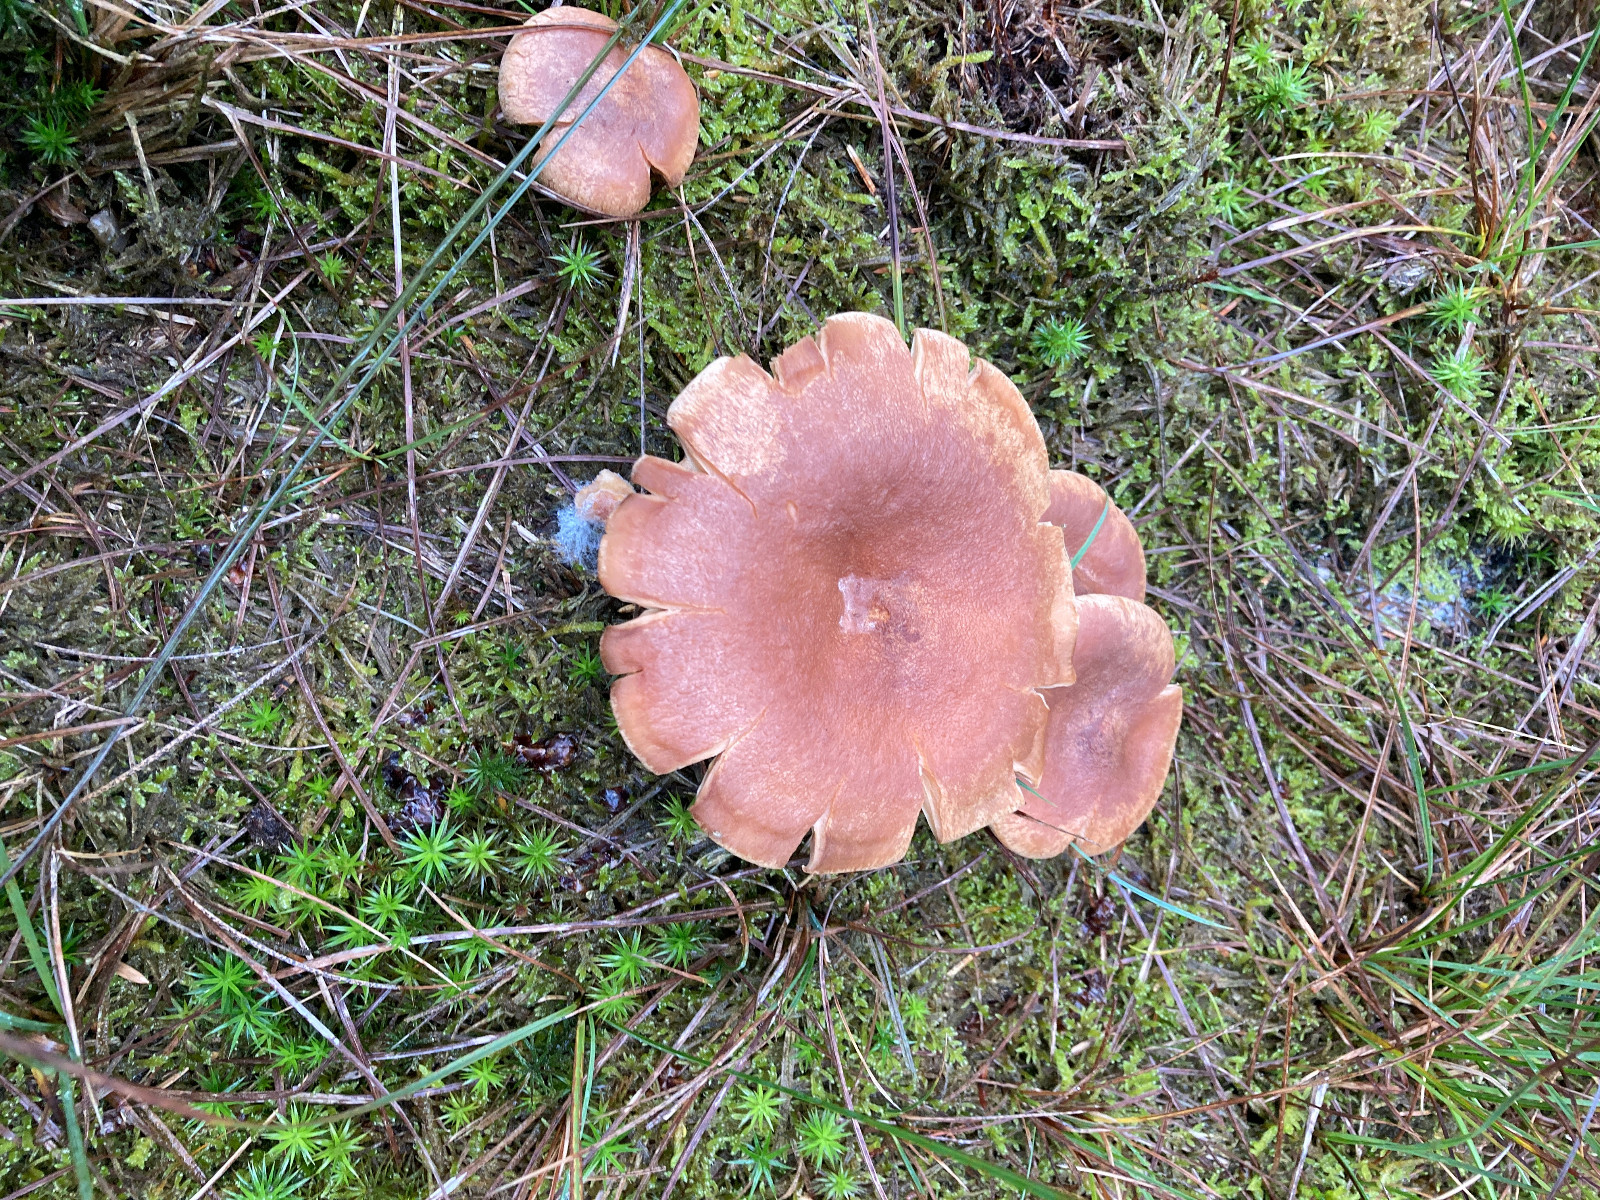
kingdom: Fungi
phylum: Basidiomycota
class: Agaricomycetes
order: Russulales
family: Russulaceae
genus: Lactarius
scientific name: Lactarius helvus
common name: mose-mælkehat
